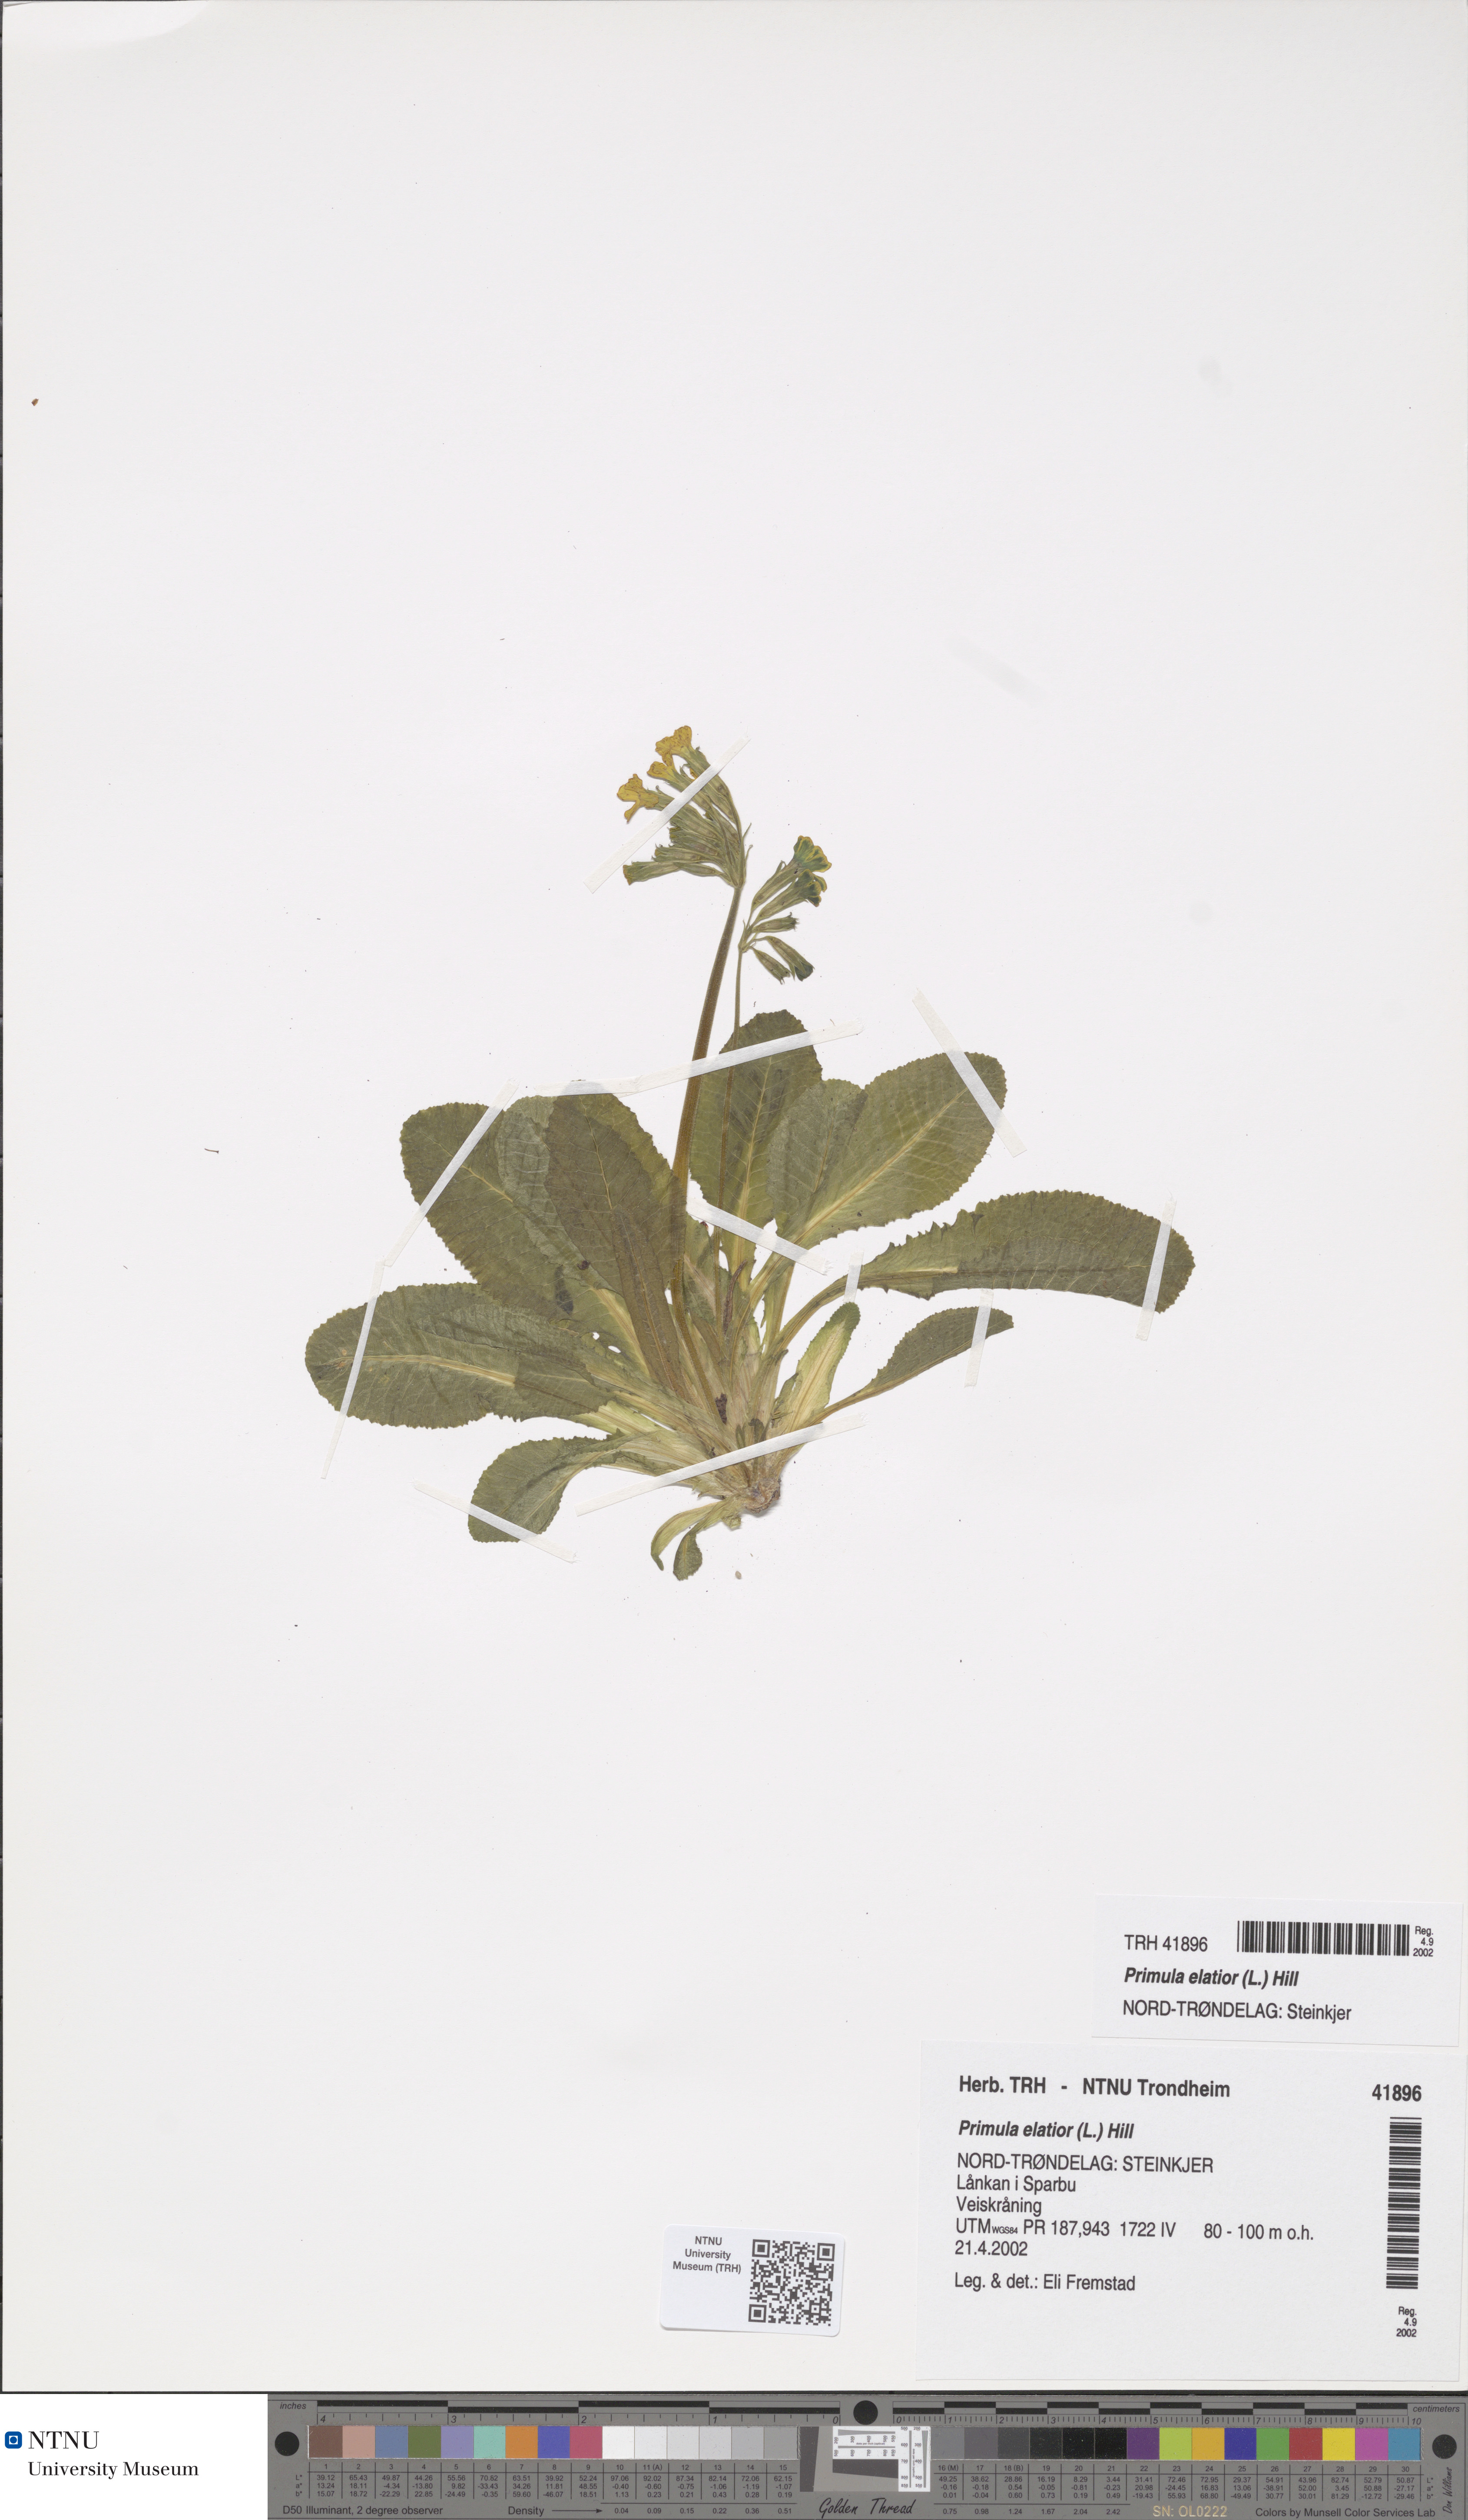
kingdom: Plantae
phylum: Tracheophyta
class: Magnoliopsida
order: Ericales
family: Primulaceae
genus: Primula
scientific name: Primula elatior
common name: Oxlip
